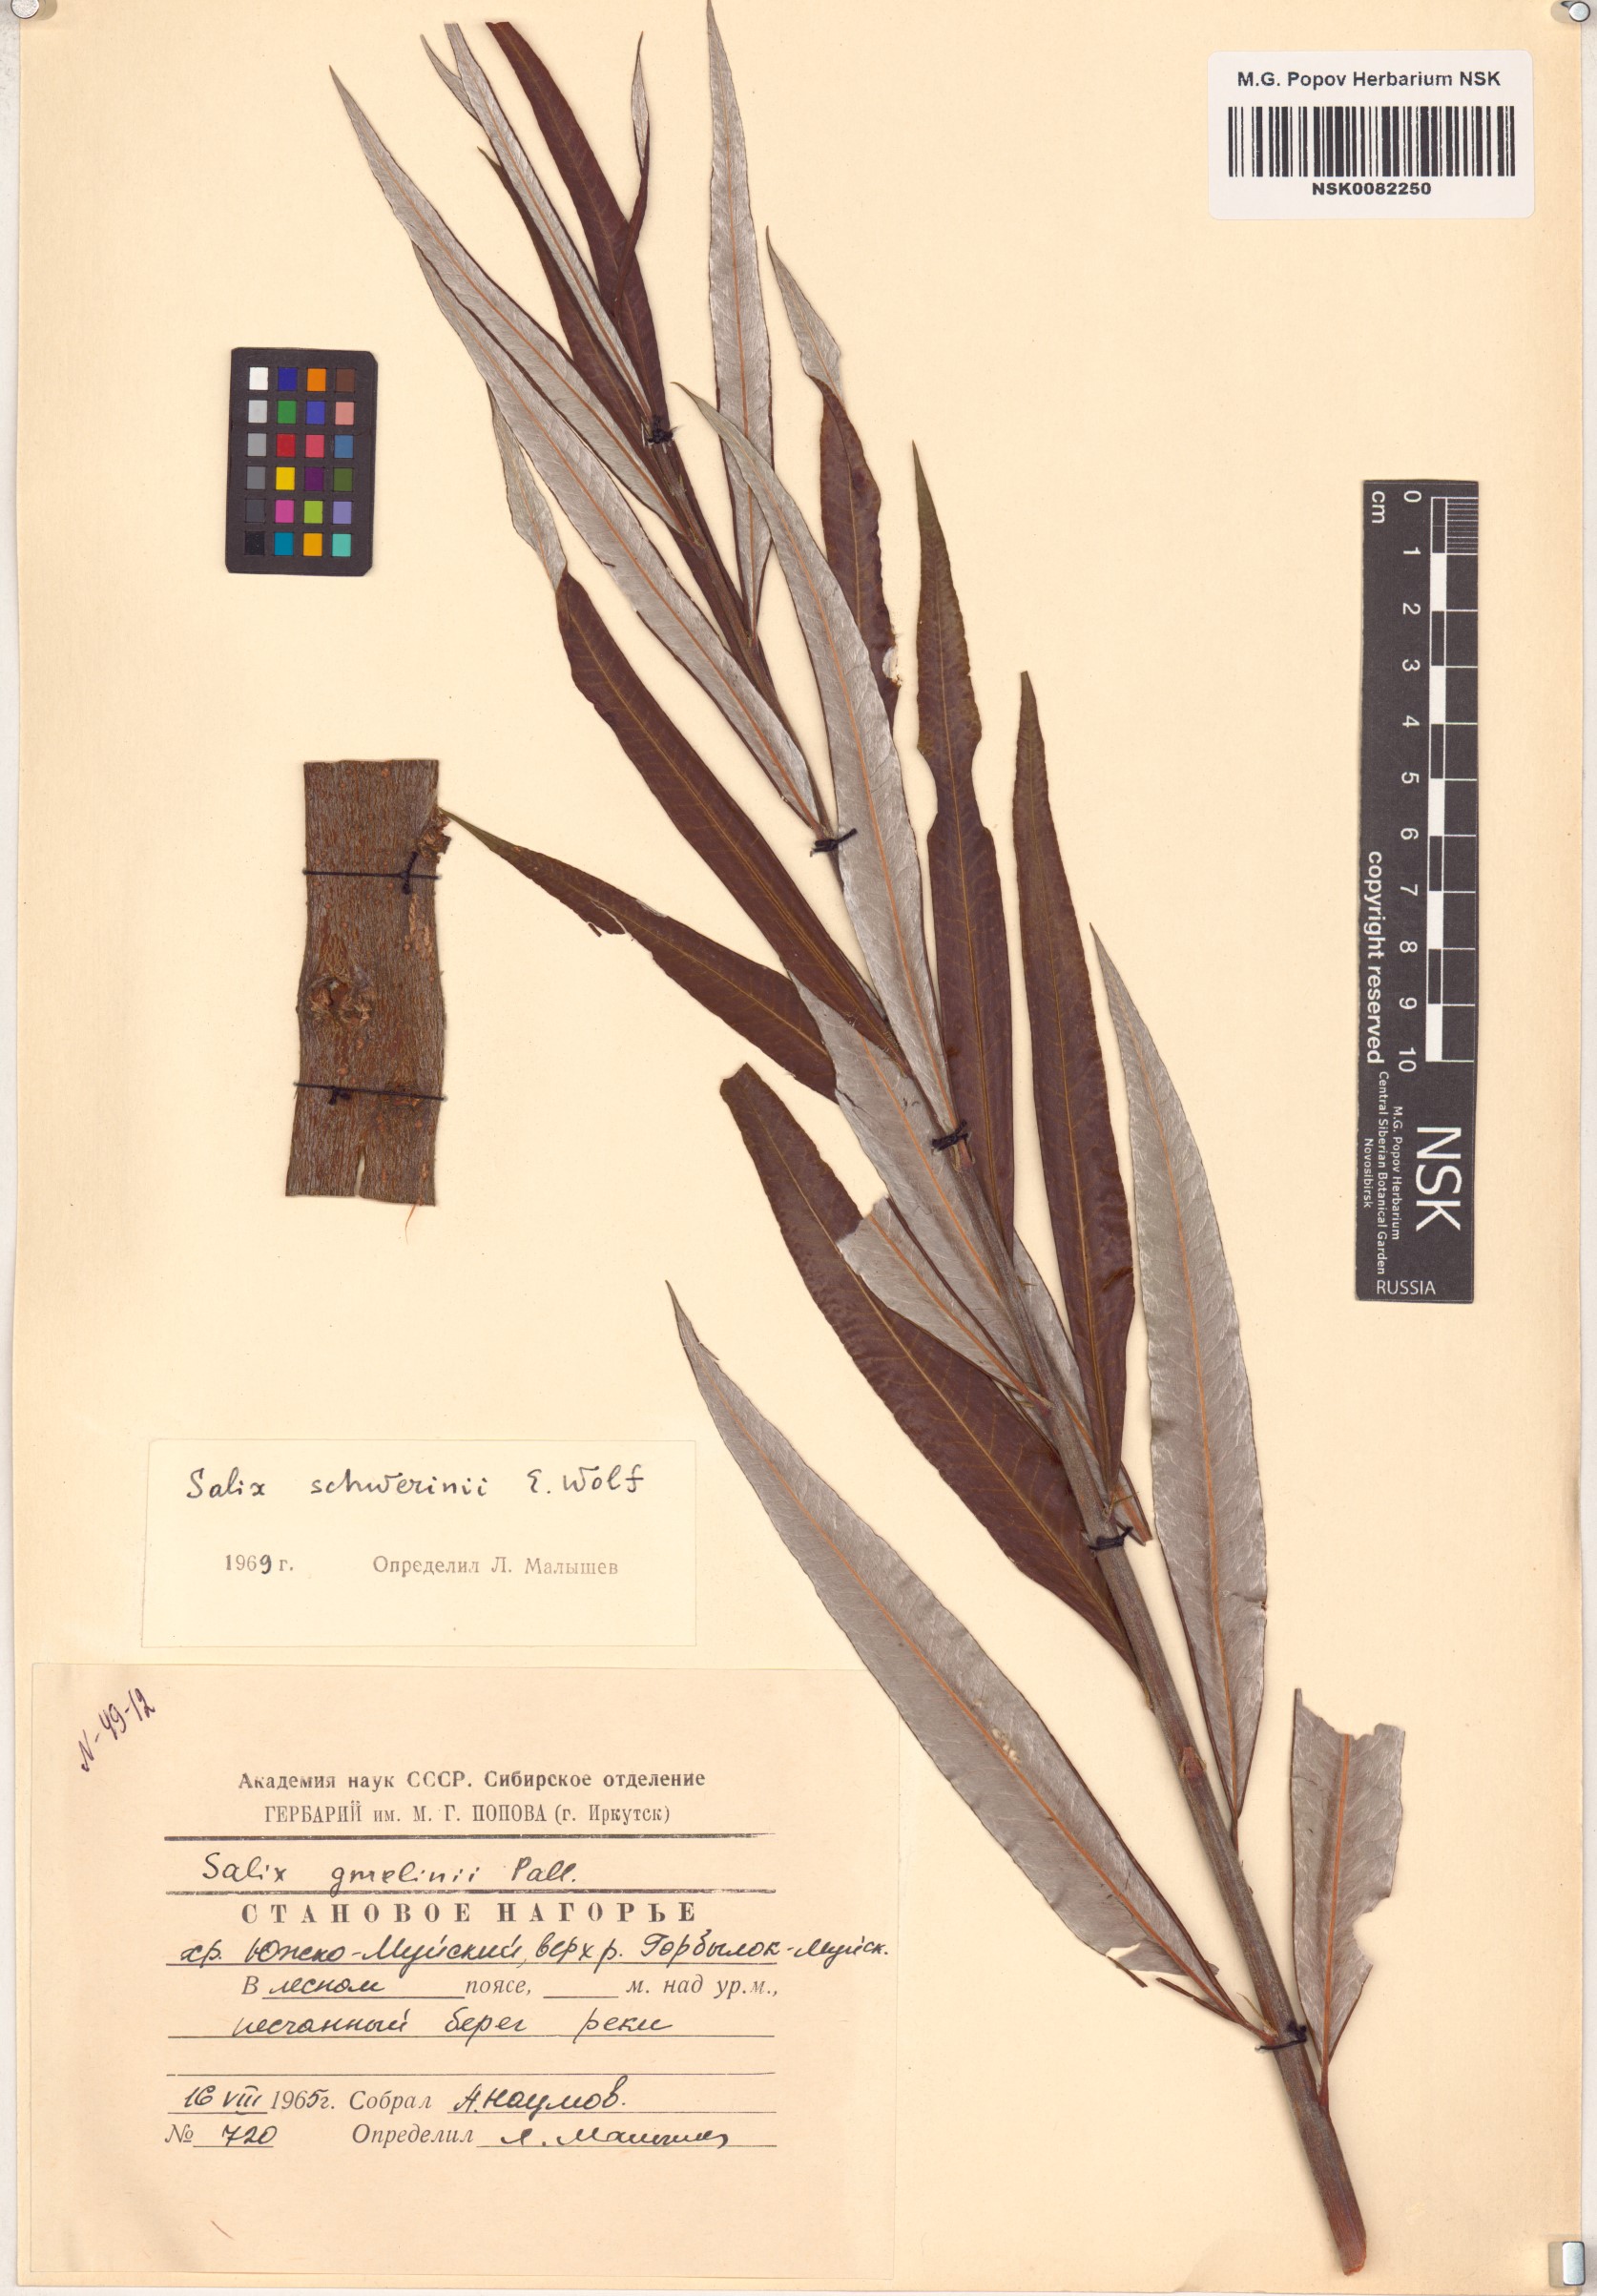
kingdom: Plantae
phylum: Tracheophyta
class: Magnoliopsida
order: Malpighiales
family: Salicaceae
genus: Salix
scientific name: Salix schwerinii
